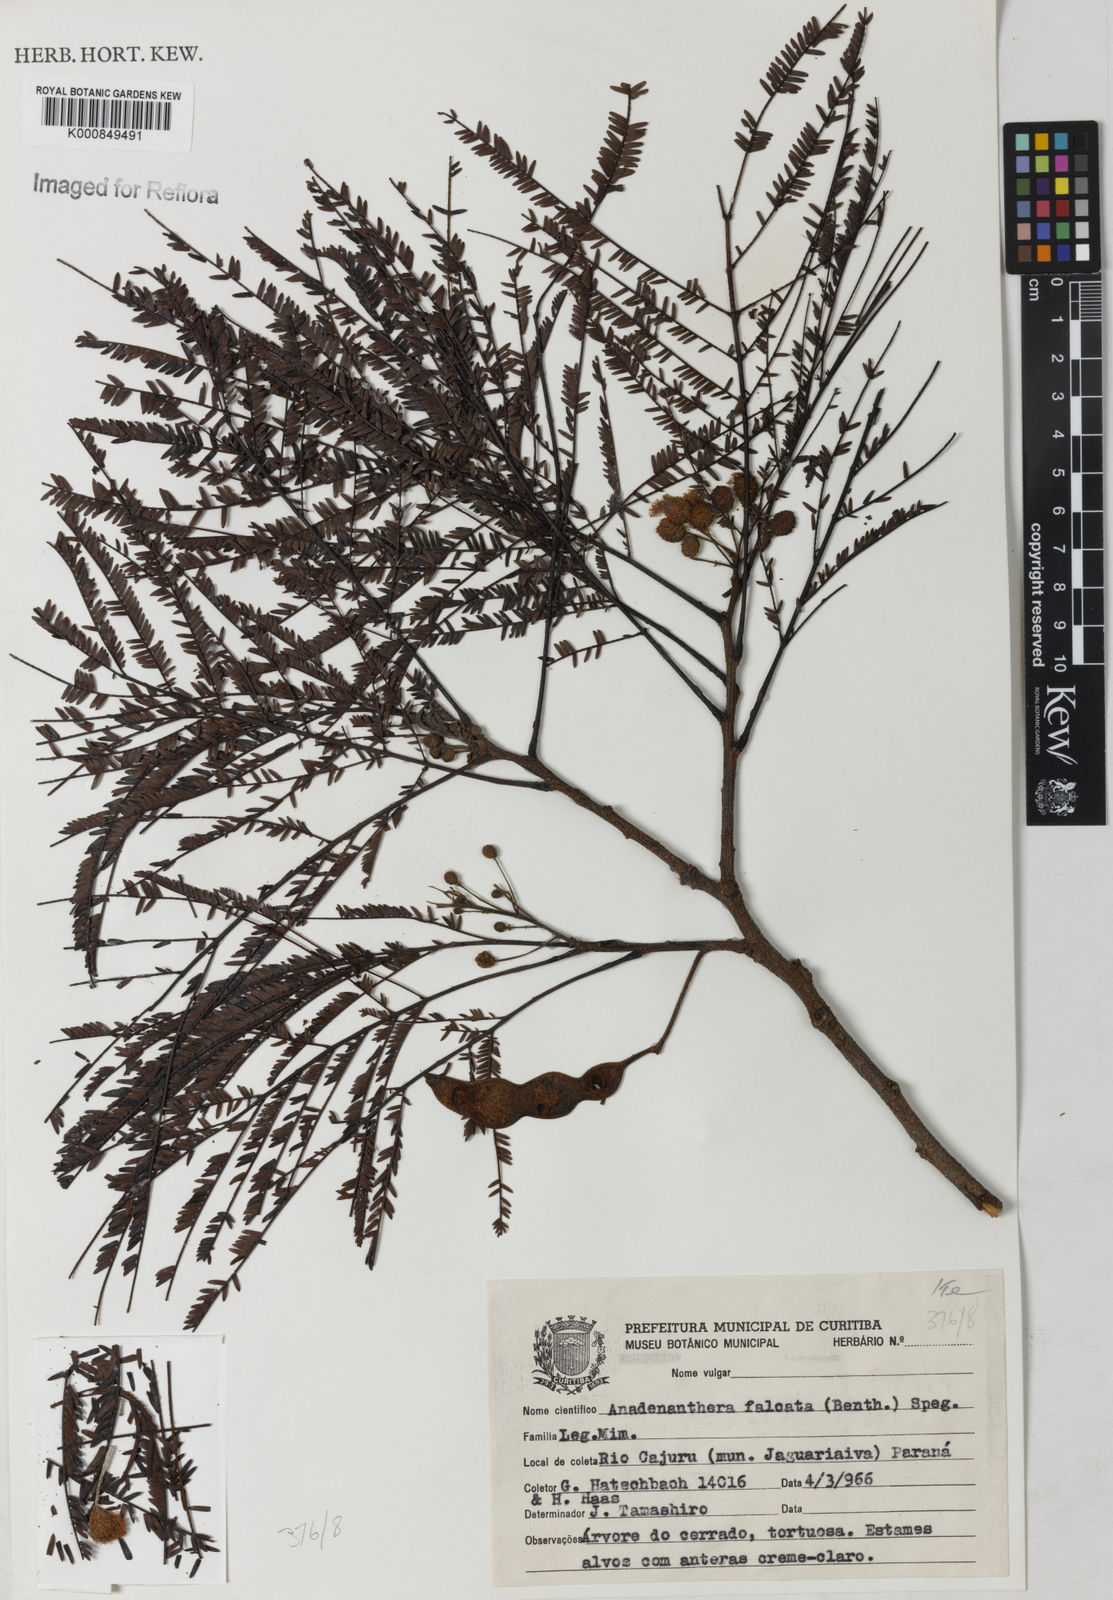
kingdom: Plantae
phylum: Tracheophyta
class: Magnoliopsida
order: Fabales
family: Fabaceae
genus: Anadenanthera
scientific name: Anadenanthera peregrina
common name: Cohoba
